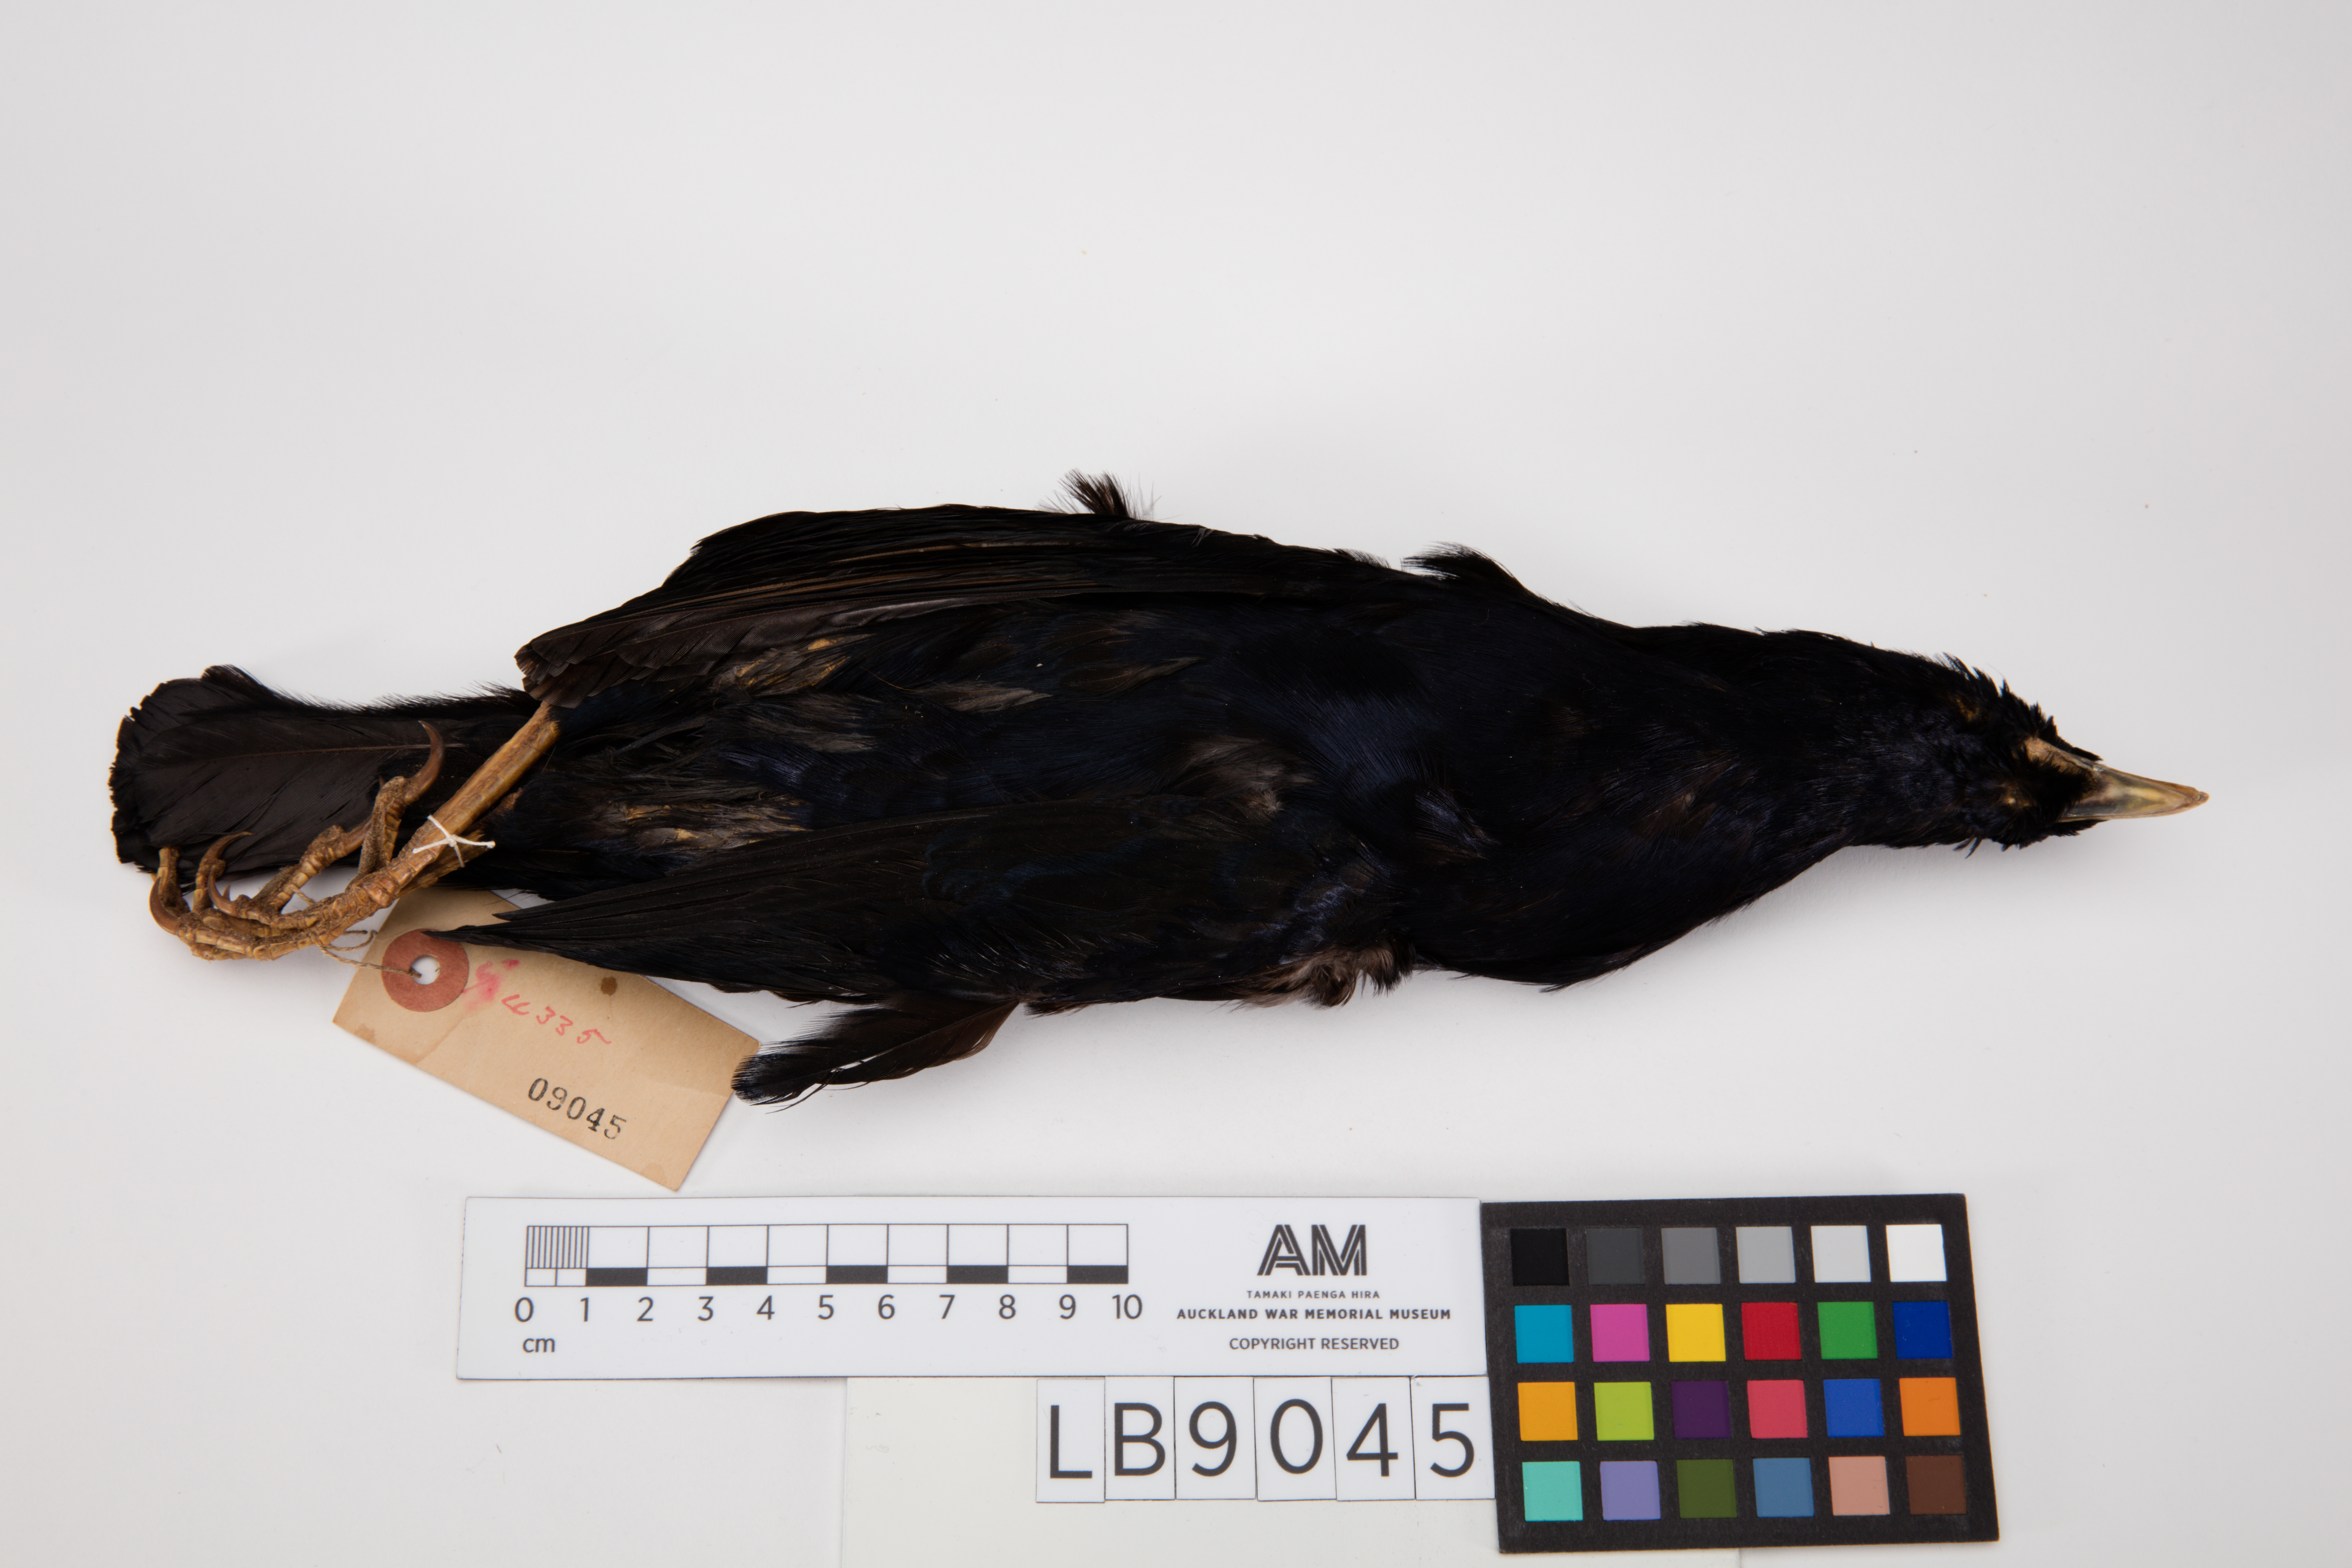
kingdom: Animalia
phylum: Chordata
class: Aves
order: Passeriformes
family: Ptilonorhynchidae
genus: Ptilonorhynchus
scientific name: Ptilonorhynchus violaceus
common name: Satin bowerbird
